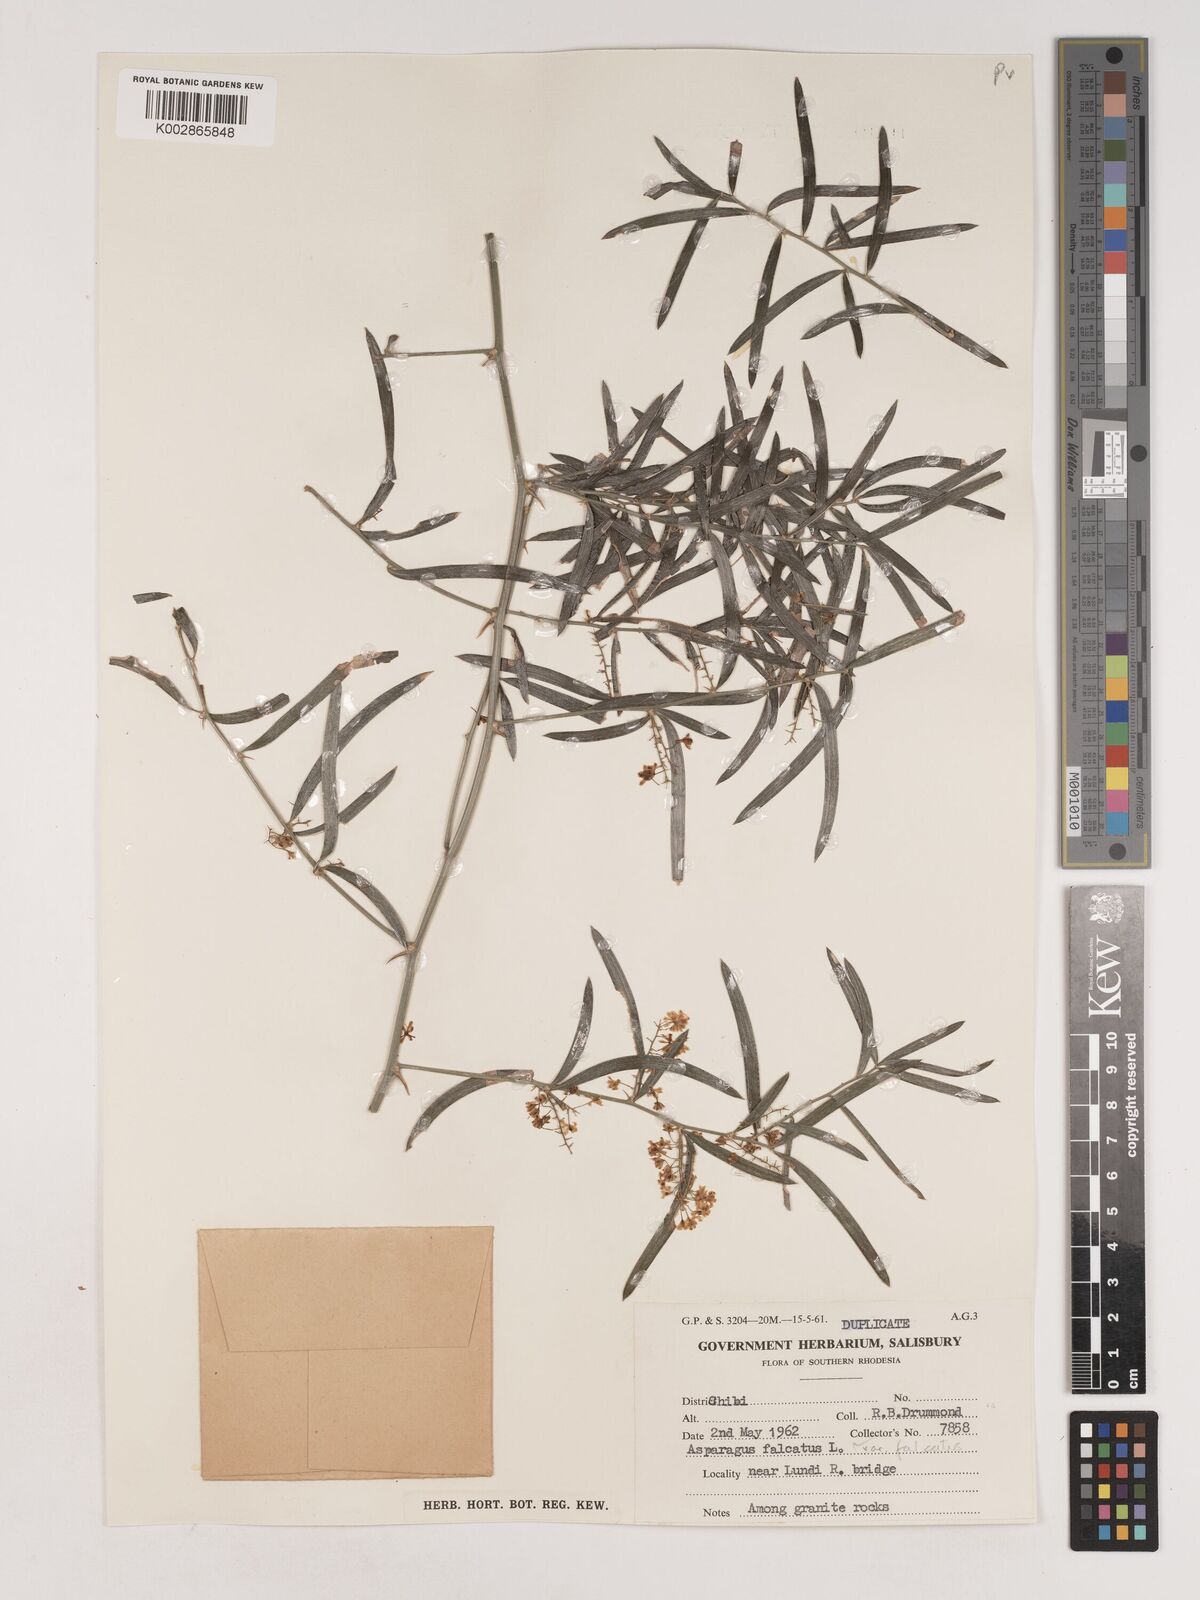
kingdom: Plantae
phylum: Tracheophyta
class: Liliopsida
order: Asparagales
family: Asparagaceae
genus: Asparagus
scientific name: Asparagus falcatus
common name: Asparagus
